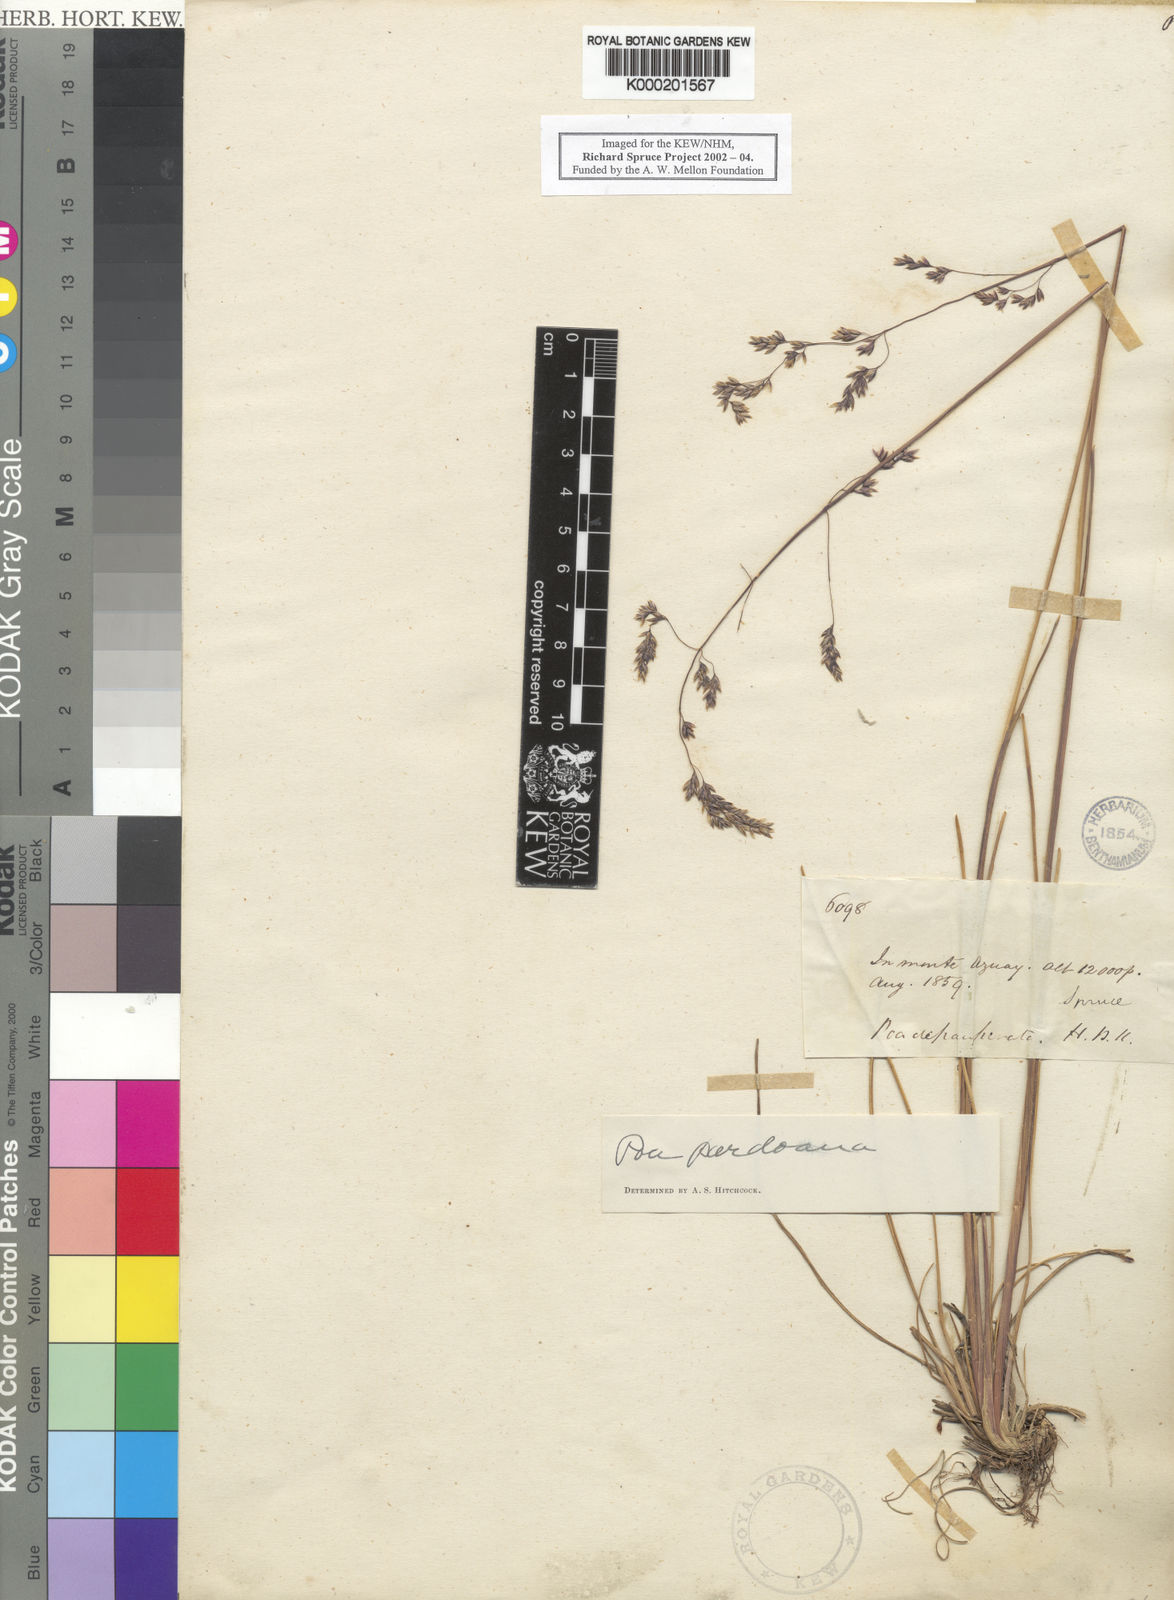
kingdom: Plantae
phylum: Tracheophyta
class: Liliopsida
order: Poales
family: Poaceae
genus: Distichlis
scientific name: Distichlis distichophylla
